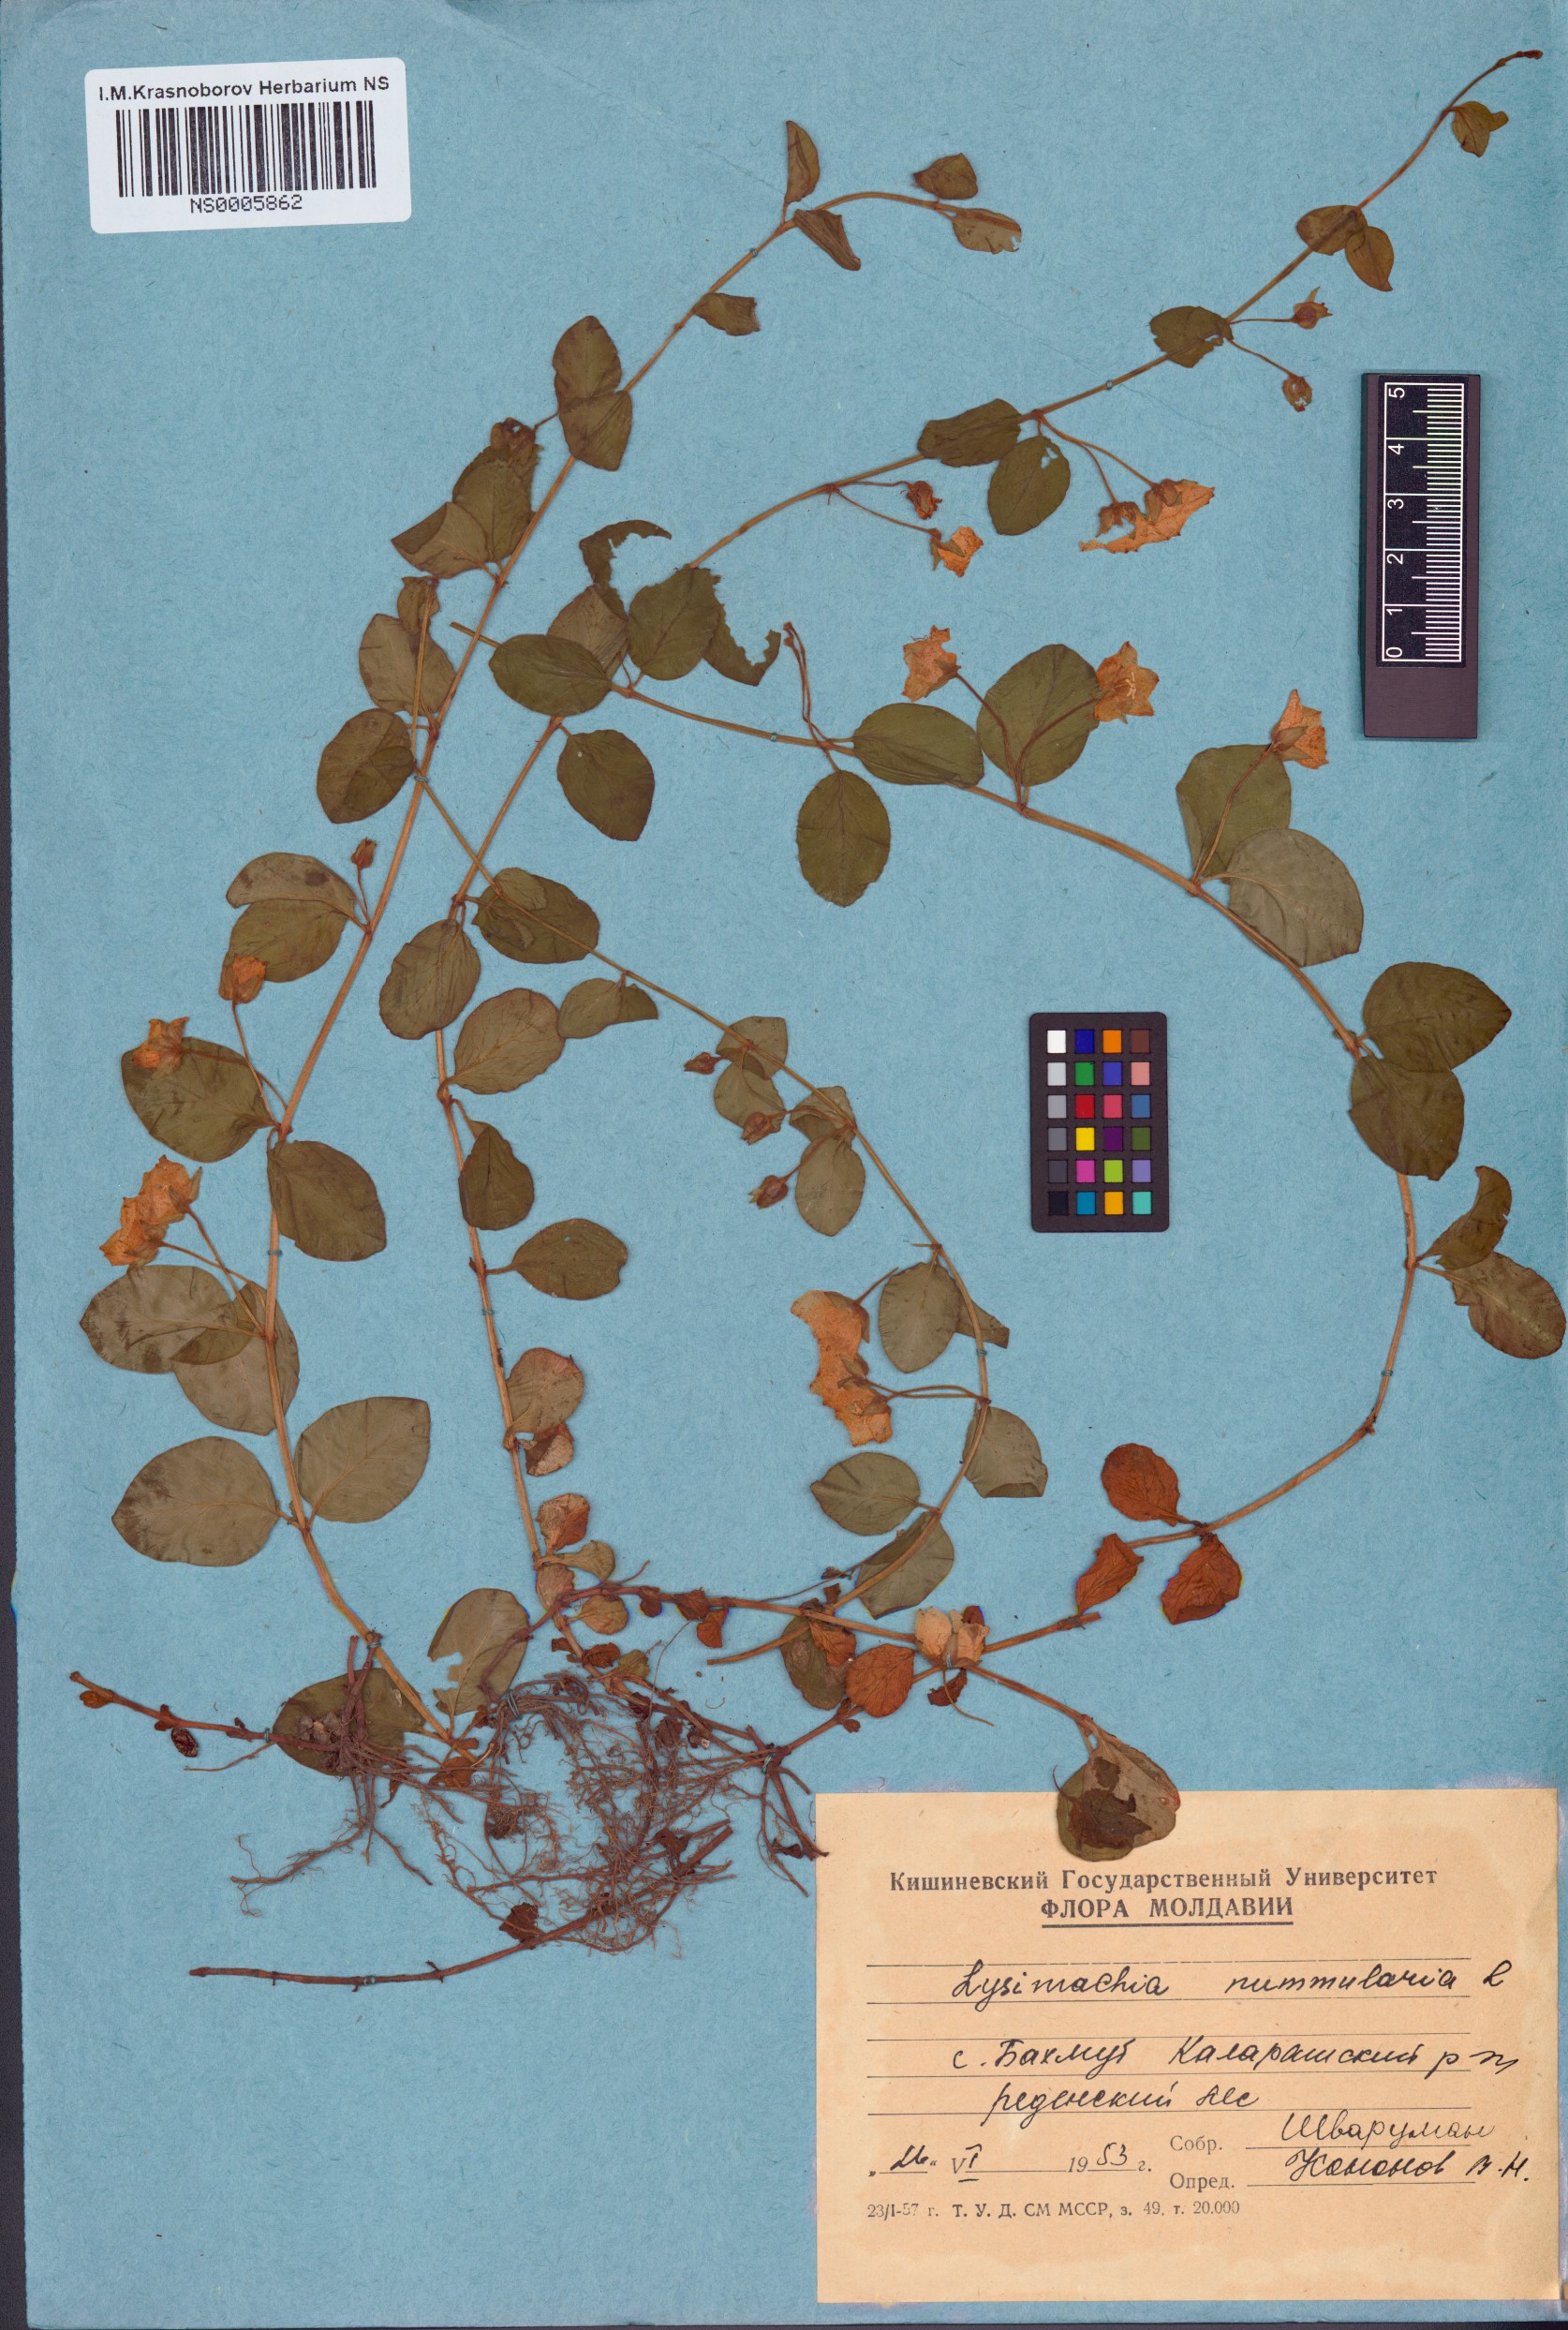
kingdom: Plantae
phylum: Tracheophyta
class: Magnoliopsida
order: Ericales
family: Primulaceae
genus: Lysimachia
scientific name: Lysimachia nummularia
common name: Moneywort
